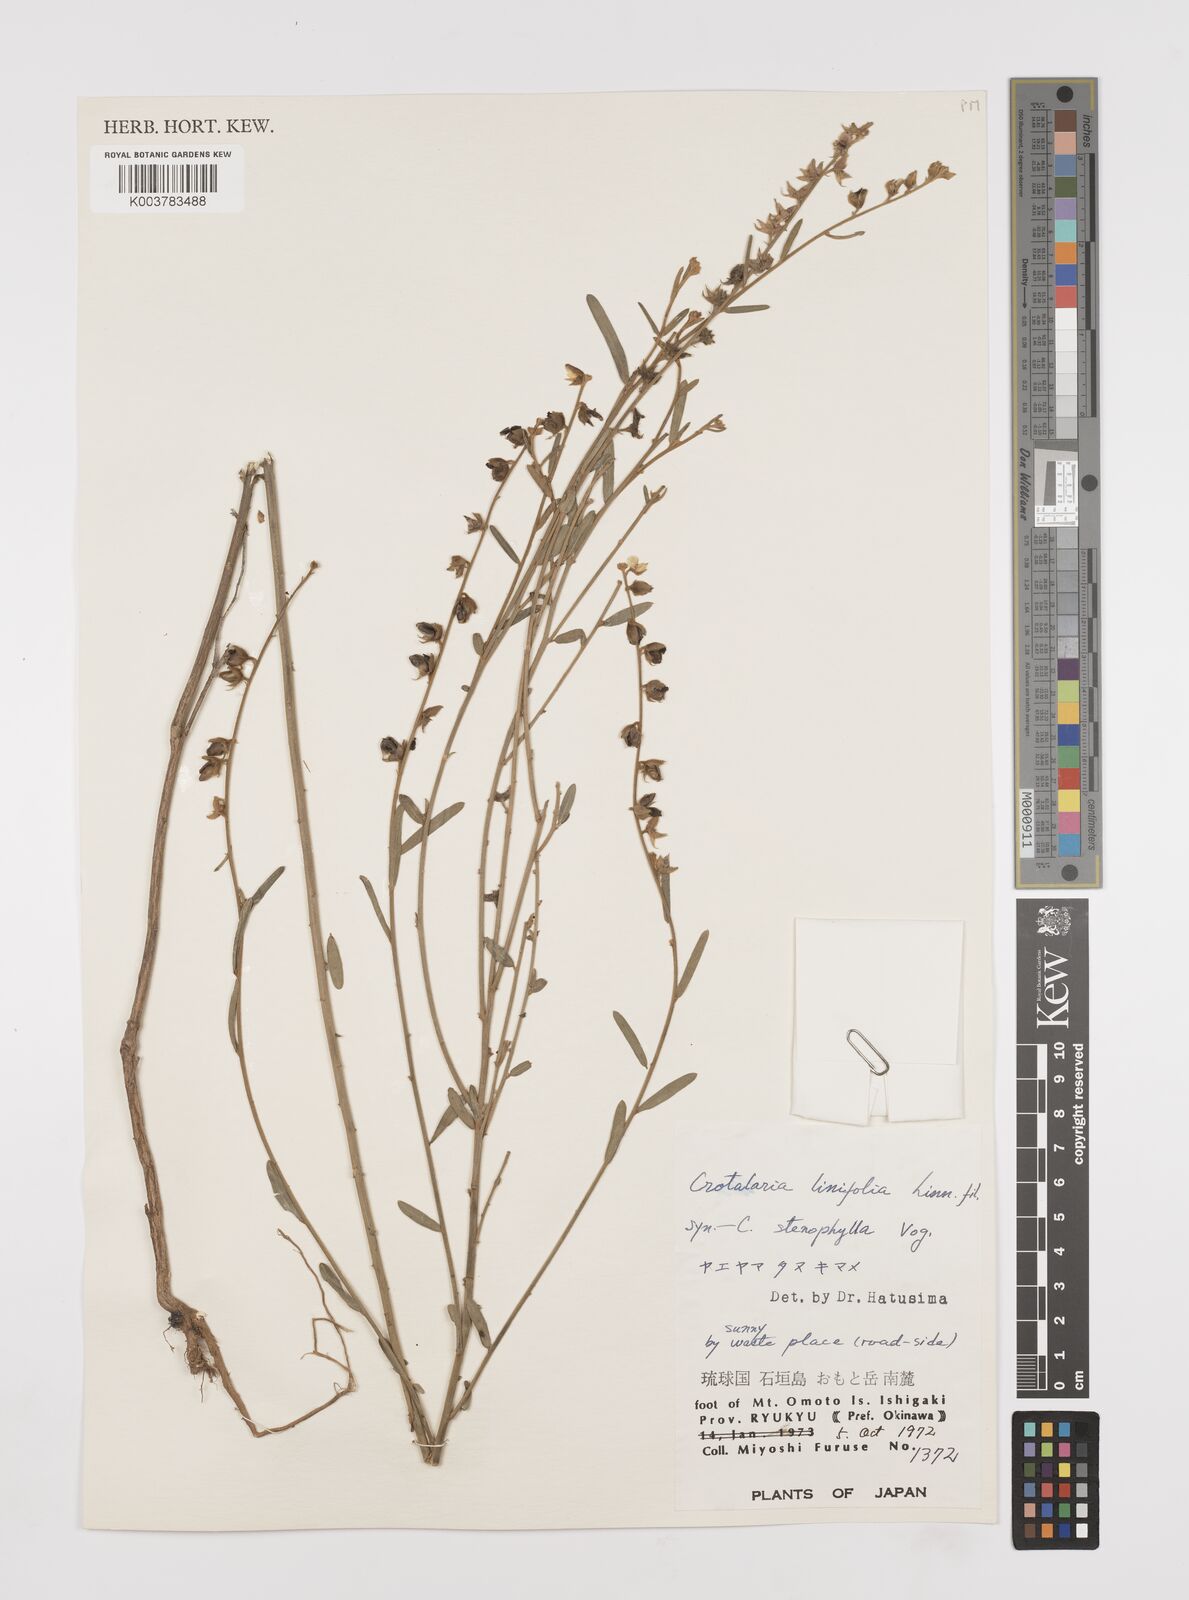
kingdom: Plantae
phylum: Tracheophyta
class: Magnoliopsida
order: Fabales
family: Fabaceae
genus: Crotalaria
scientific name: Crotalaria linifolia
